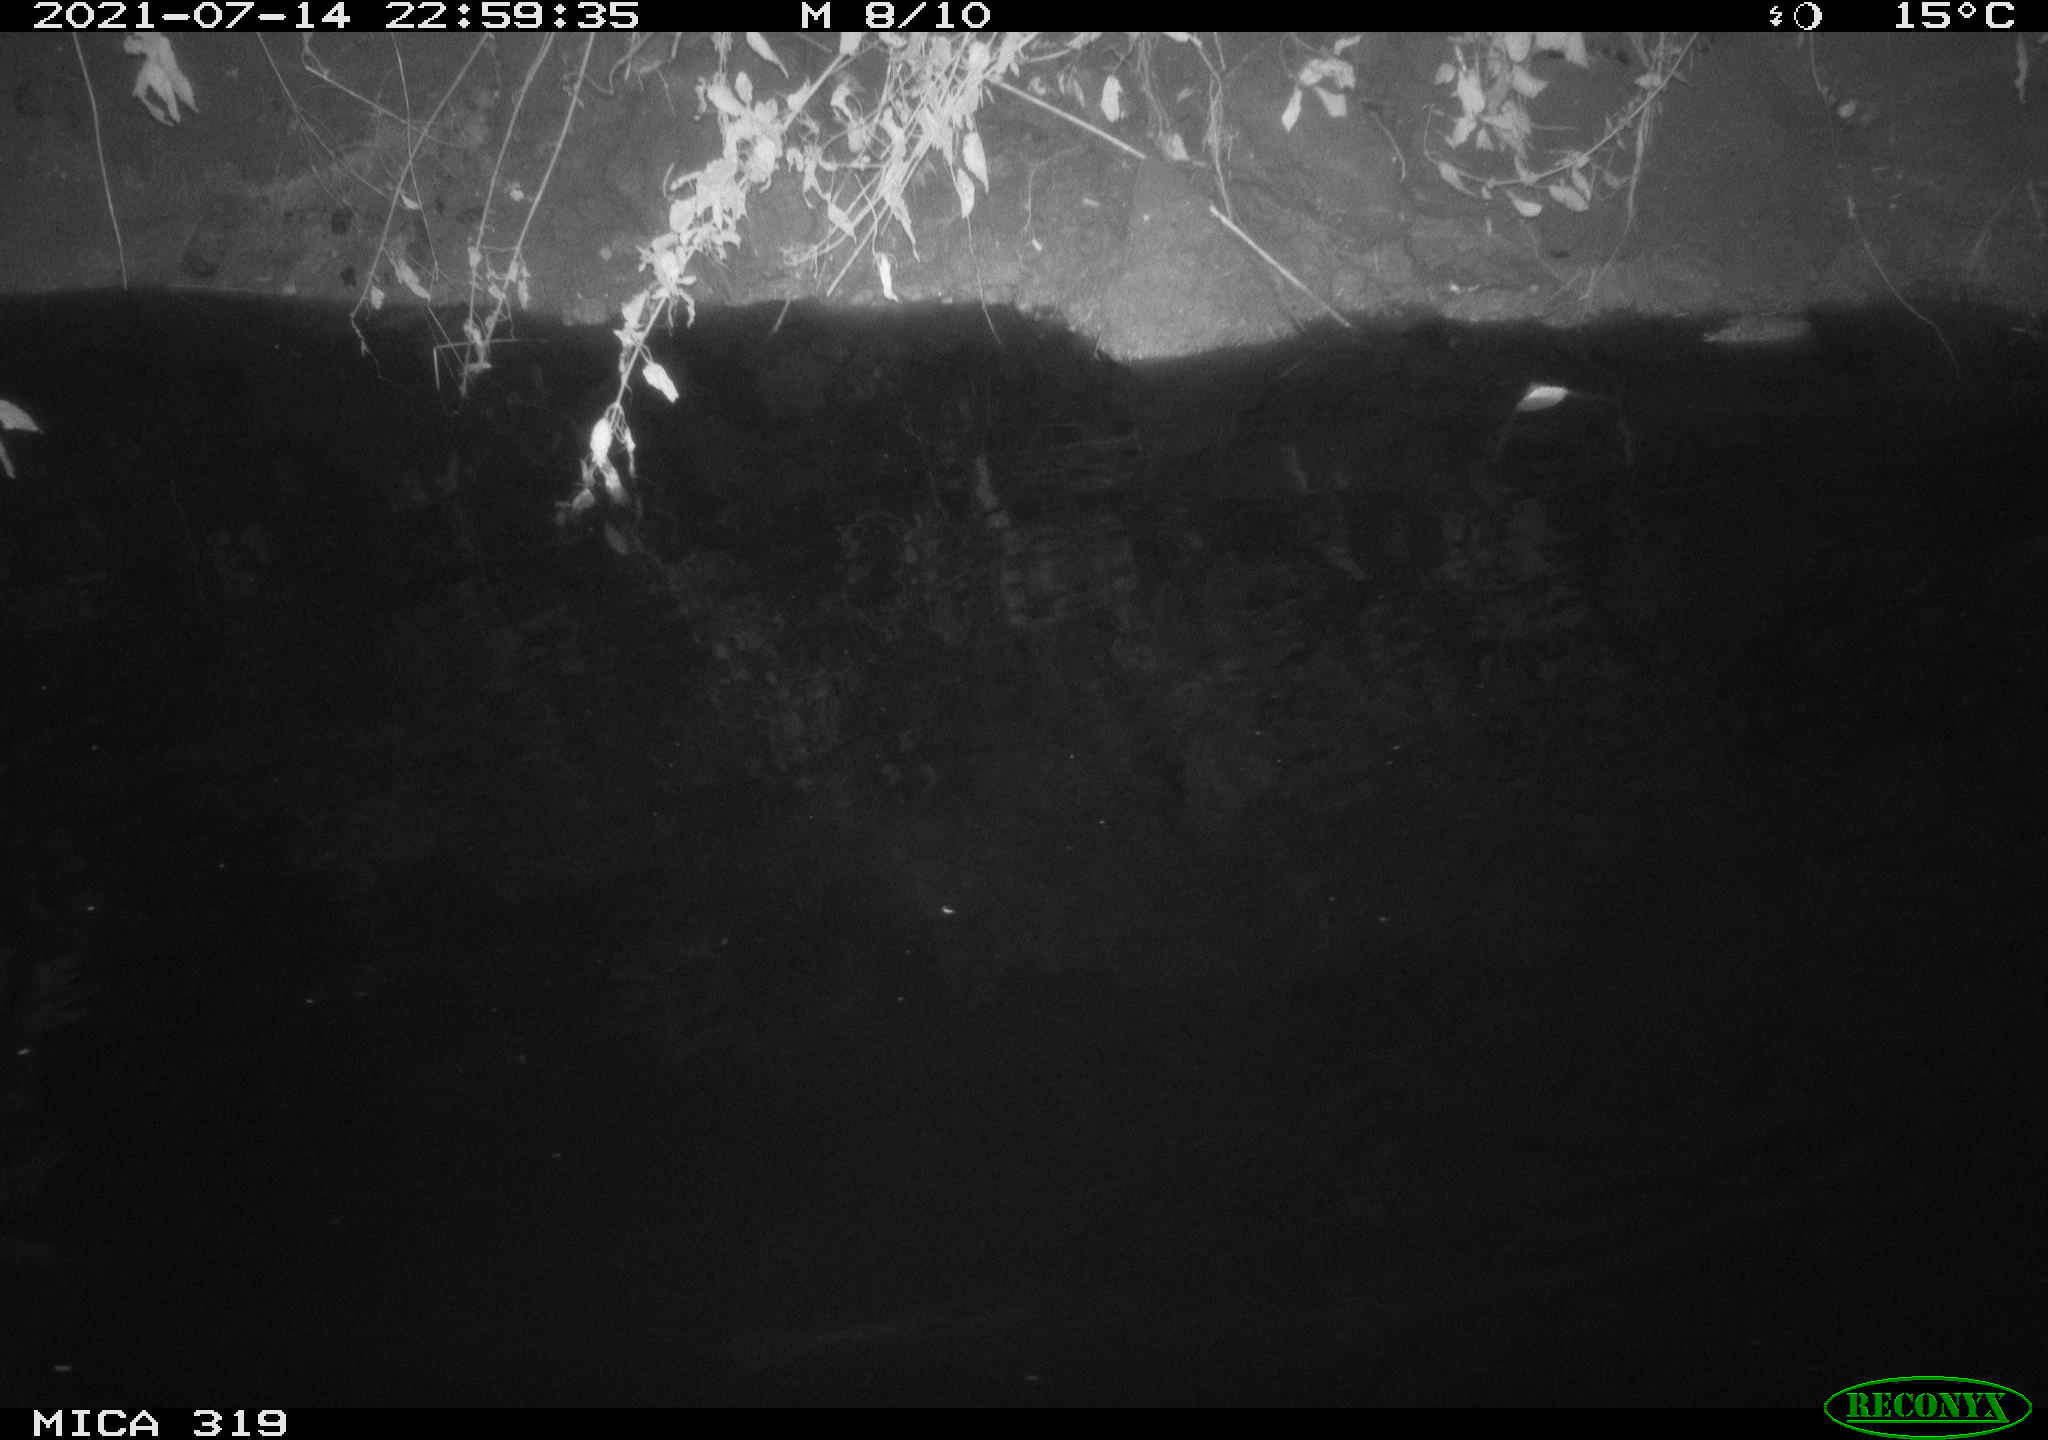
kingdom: Animalia
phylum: Chordata
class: Aves
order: Anseriformes
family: Anatidae
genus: Anas
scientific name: Anas platyrhynchos
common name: Mallard
